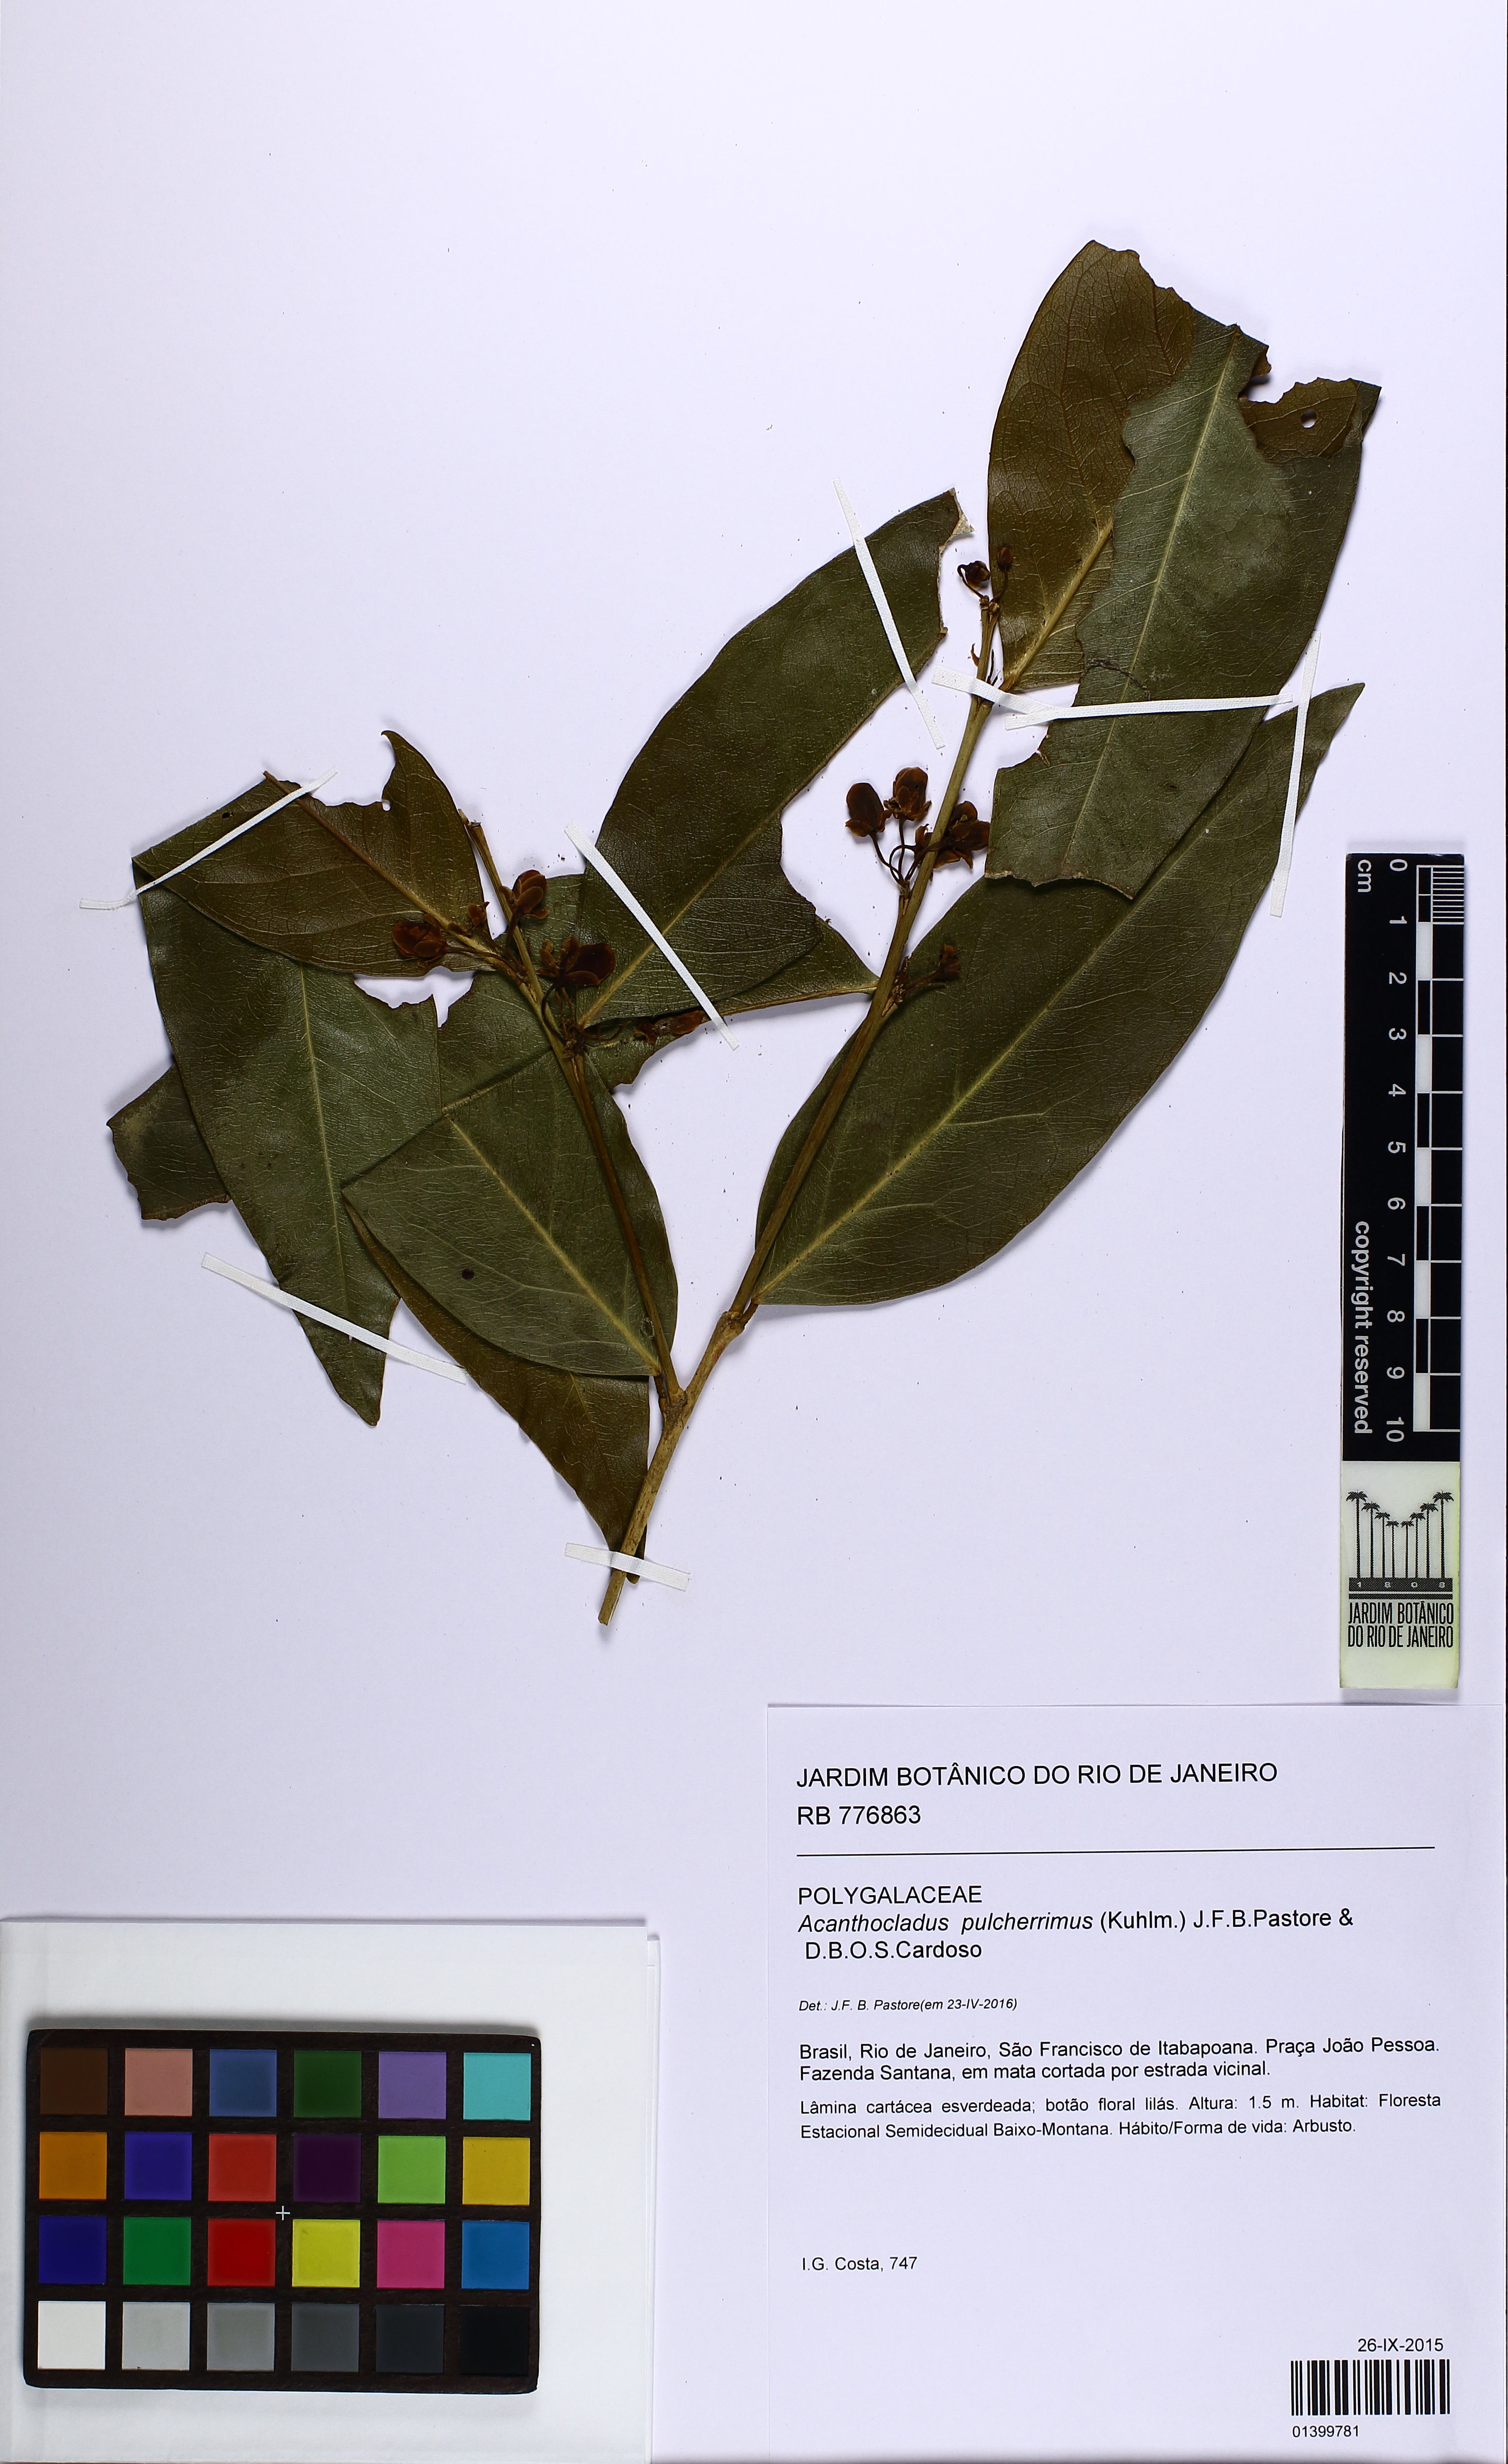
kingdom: Plantae
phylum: Tracheophyta
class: Magnoliopsida
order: Fabales
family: Polygalaceae
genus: Acanthocladus
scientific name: Acanthocladus pulcherrimus
